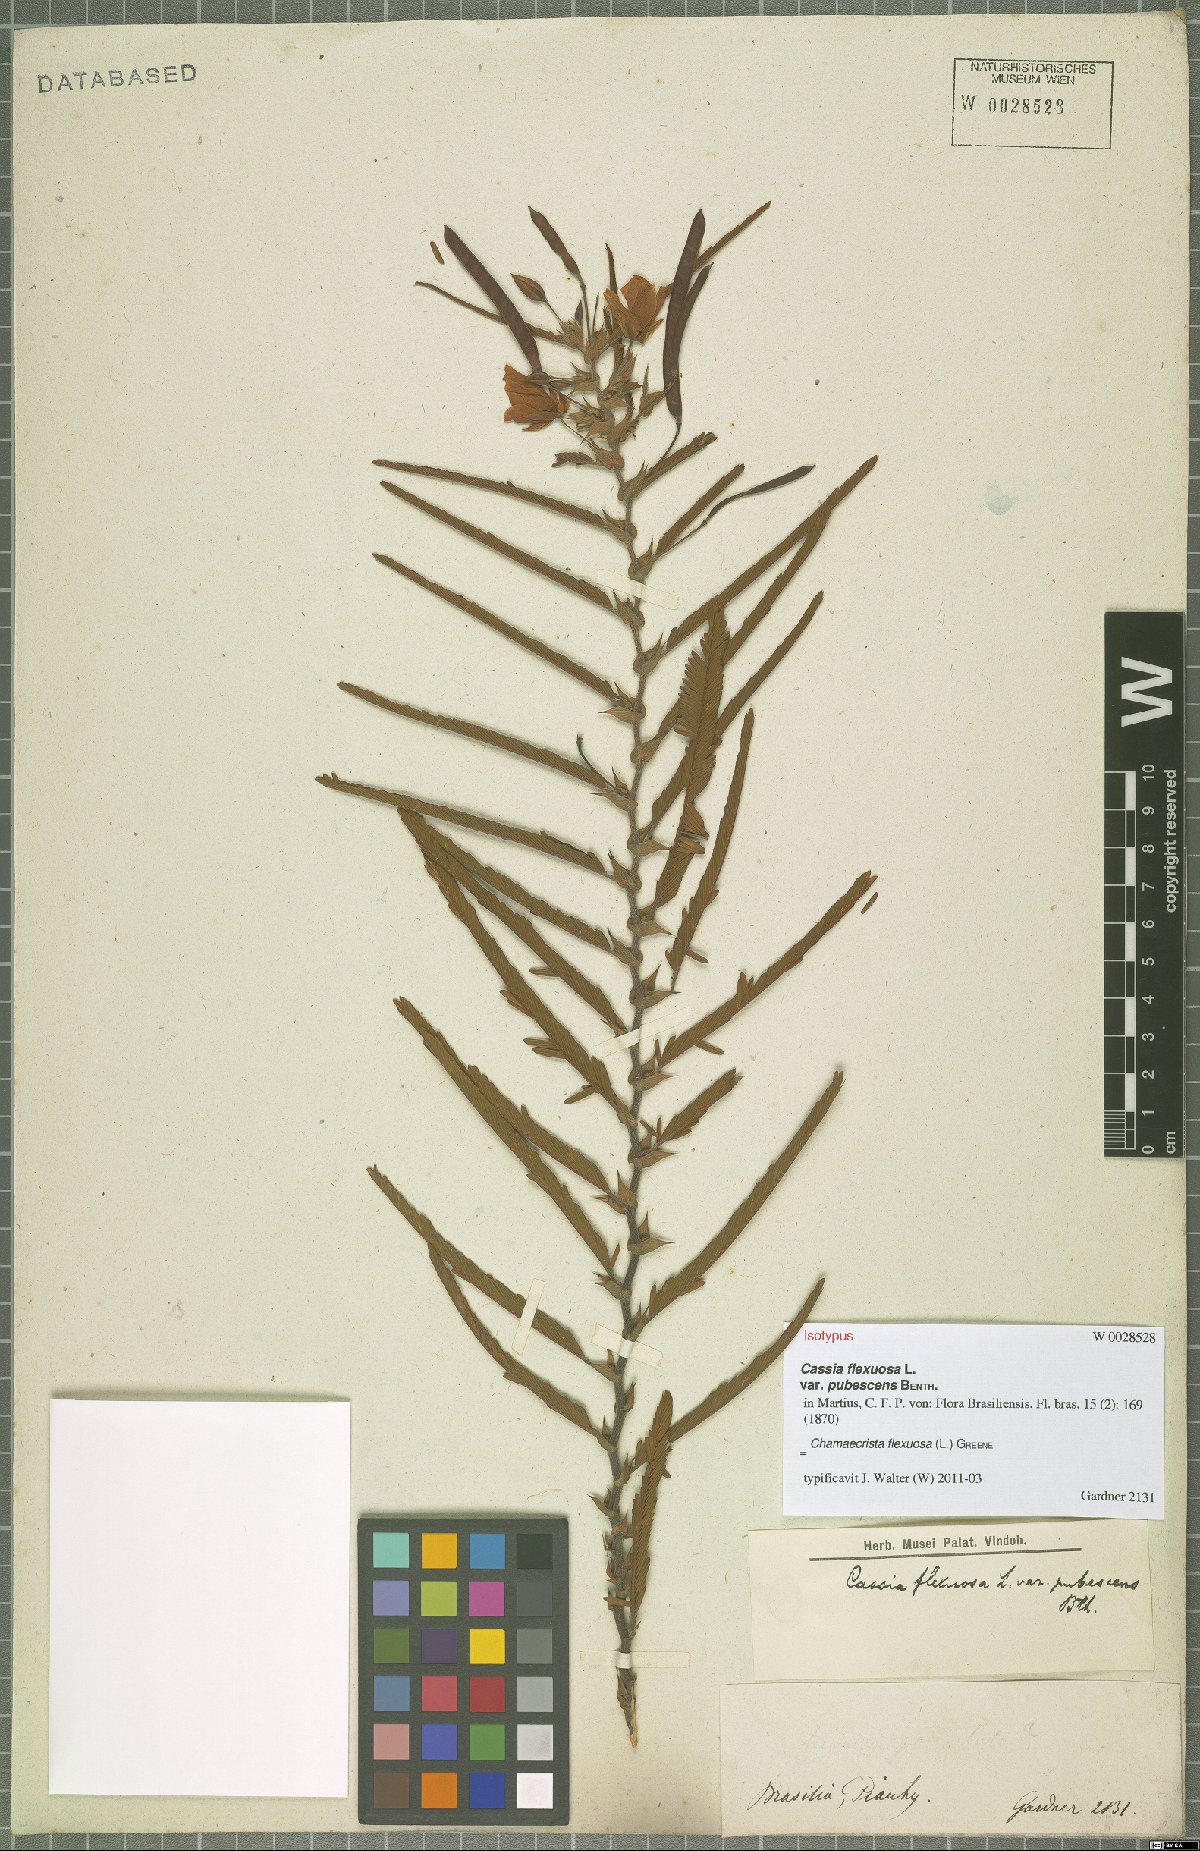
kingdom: Plantae
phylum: Tracheophyta
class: Magnoliopsida
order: Fabales
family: Fabaceae
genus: Chamaecrista
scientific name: Chamaecrista flexuosa
